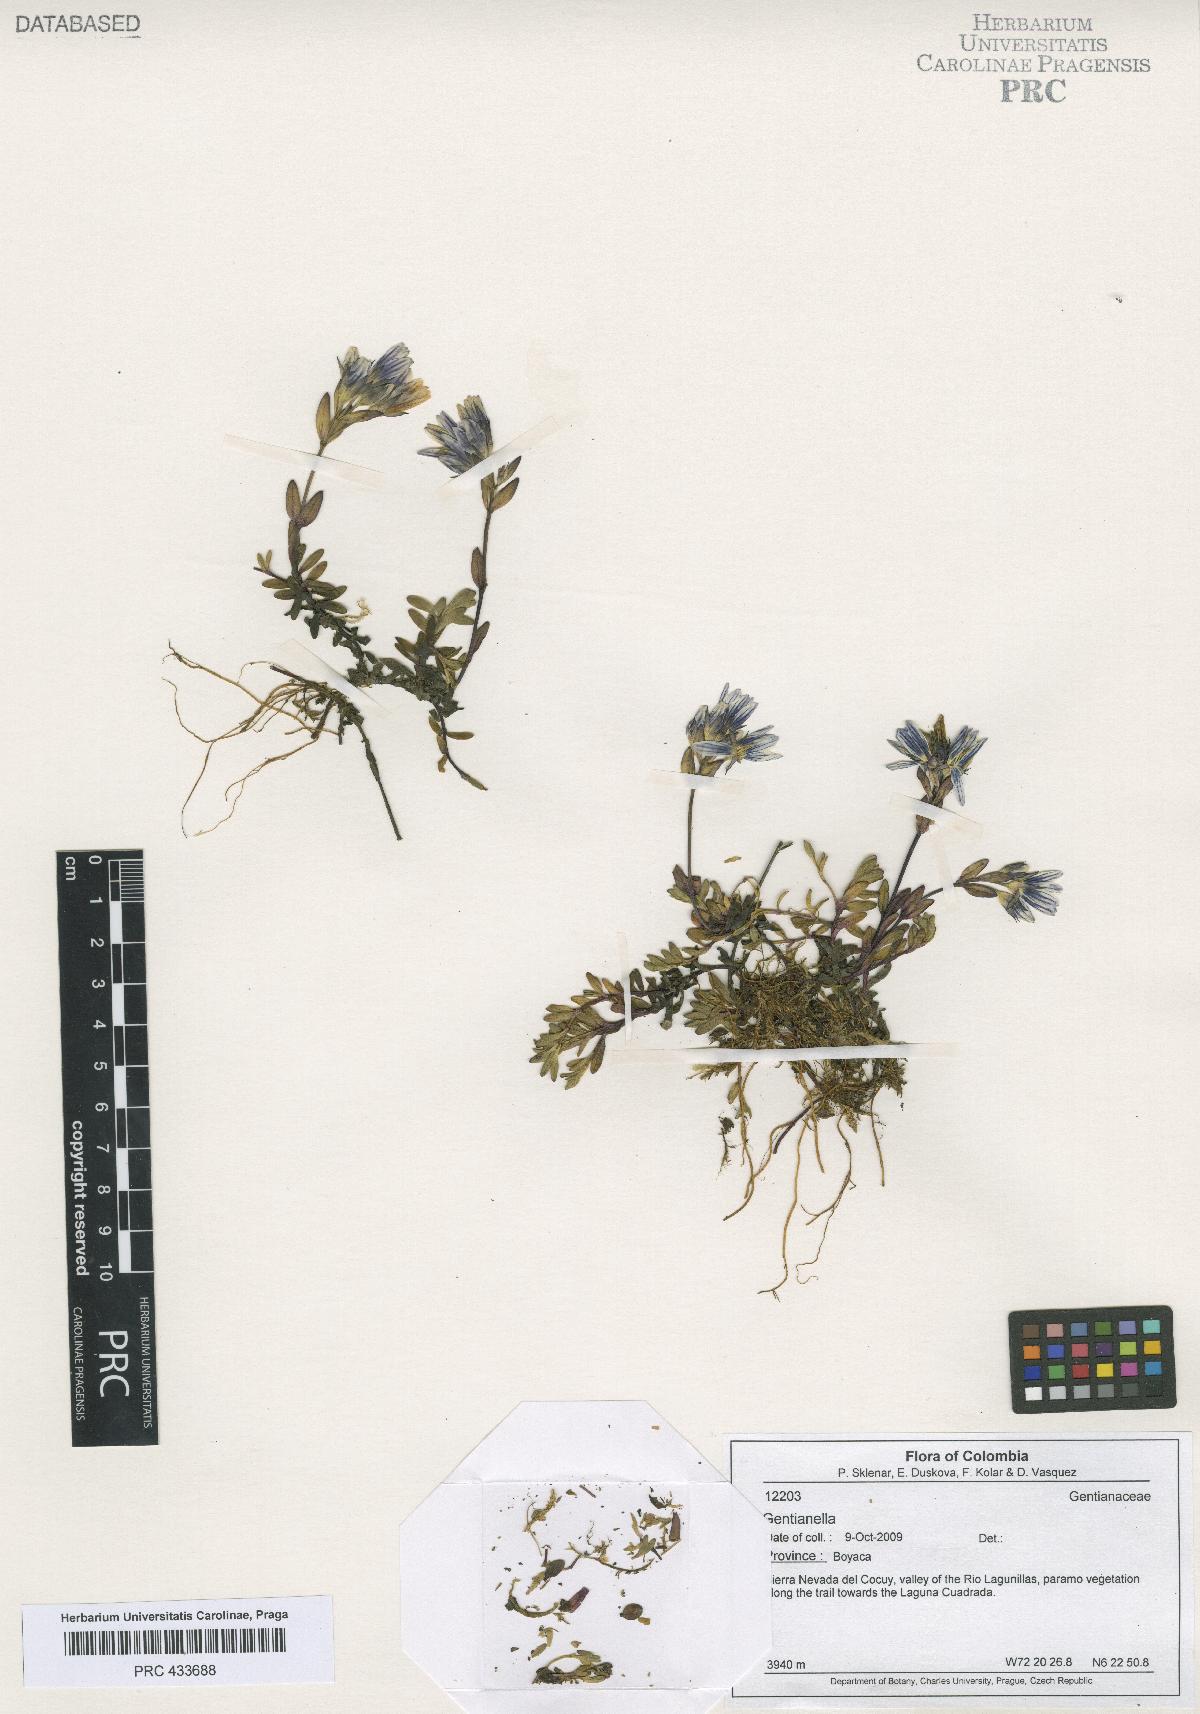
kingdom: Plantae
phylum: Tracheophyta
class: Magnoliopsida
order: Gentianales
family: Gentianaceae
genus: Gentianella
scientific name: Gentianella
